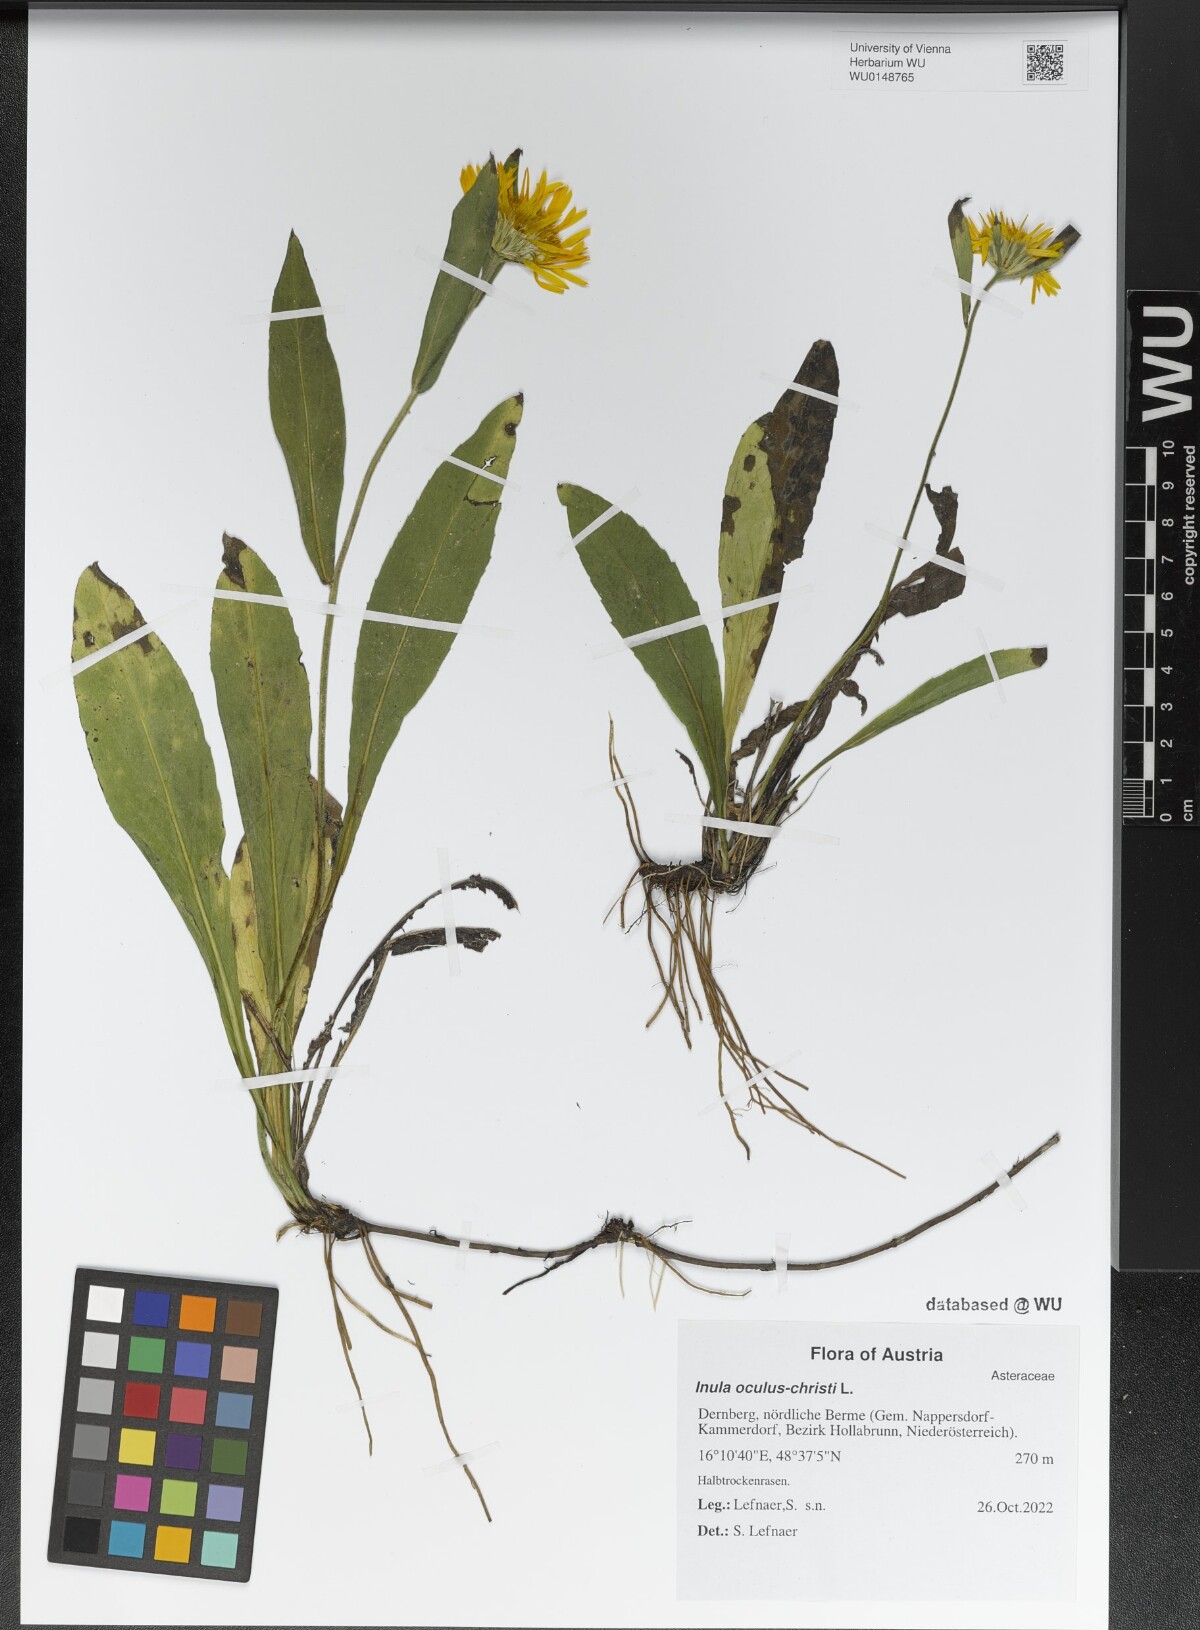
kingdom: Plantae
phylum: Tracheophyta
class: Magnoliopsida
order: Asterales
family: Asteraceae
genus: Pentanema
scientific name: Pentanema oculus-christi
